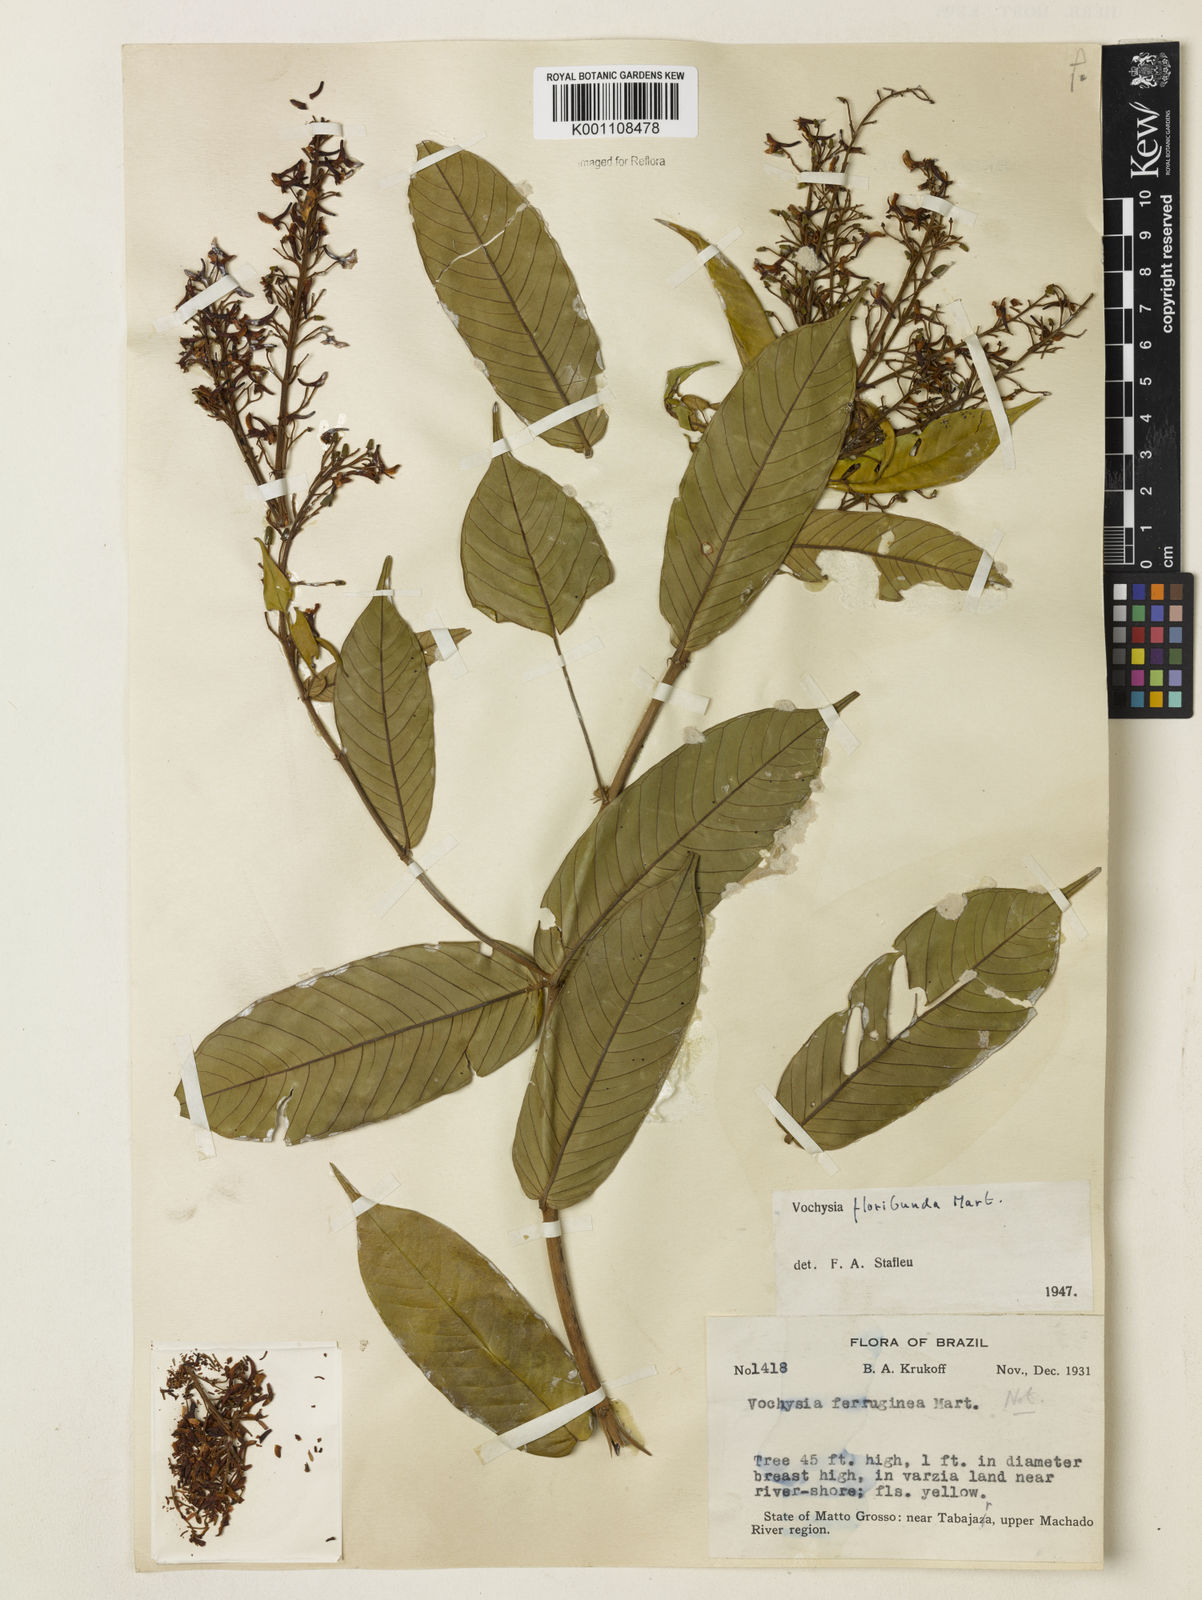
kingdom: Plantae
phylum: Tracheophyta
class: Magnoliopsida
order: Myrtales
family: Vochysiaceae
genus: Vochysia
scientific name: Vochysia floribunda
